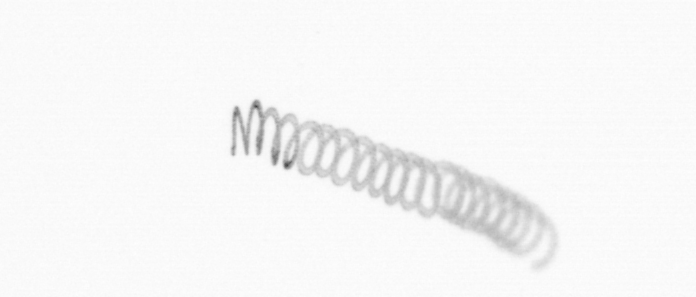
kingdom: Chromista
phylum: Ochrophyta
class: Bacillariophyceae
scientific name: Bacillariophyceae
